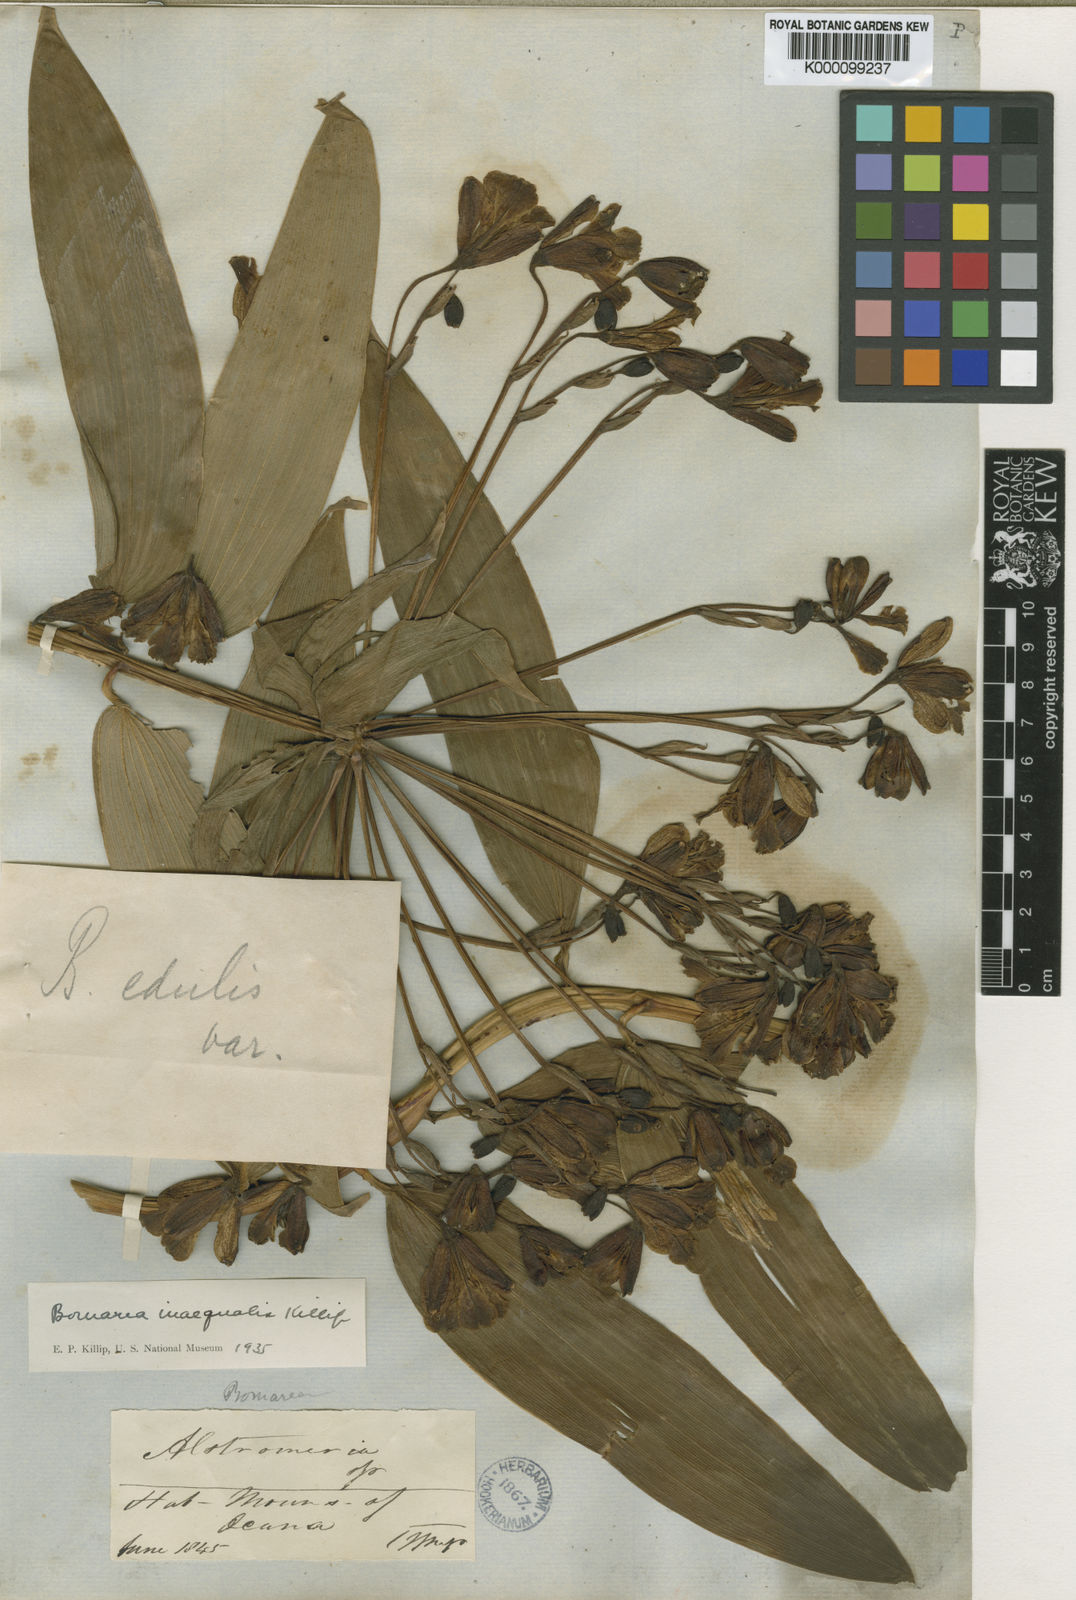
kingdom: Plantae
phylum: Tracheophyta
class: Liliopsida
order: Liliales
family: Alstroemeriaceae
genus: Bomarea
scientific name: Bomarea inaequalis
